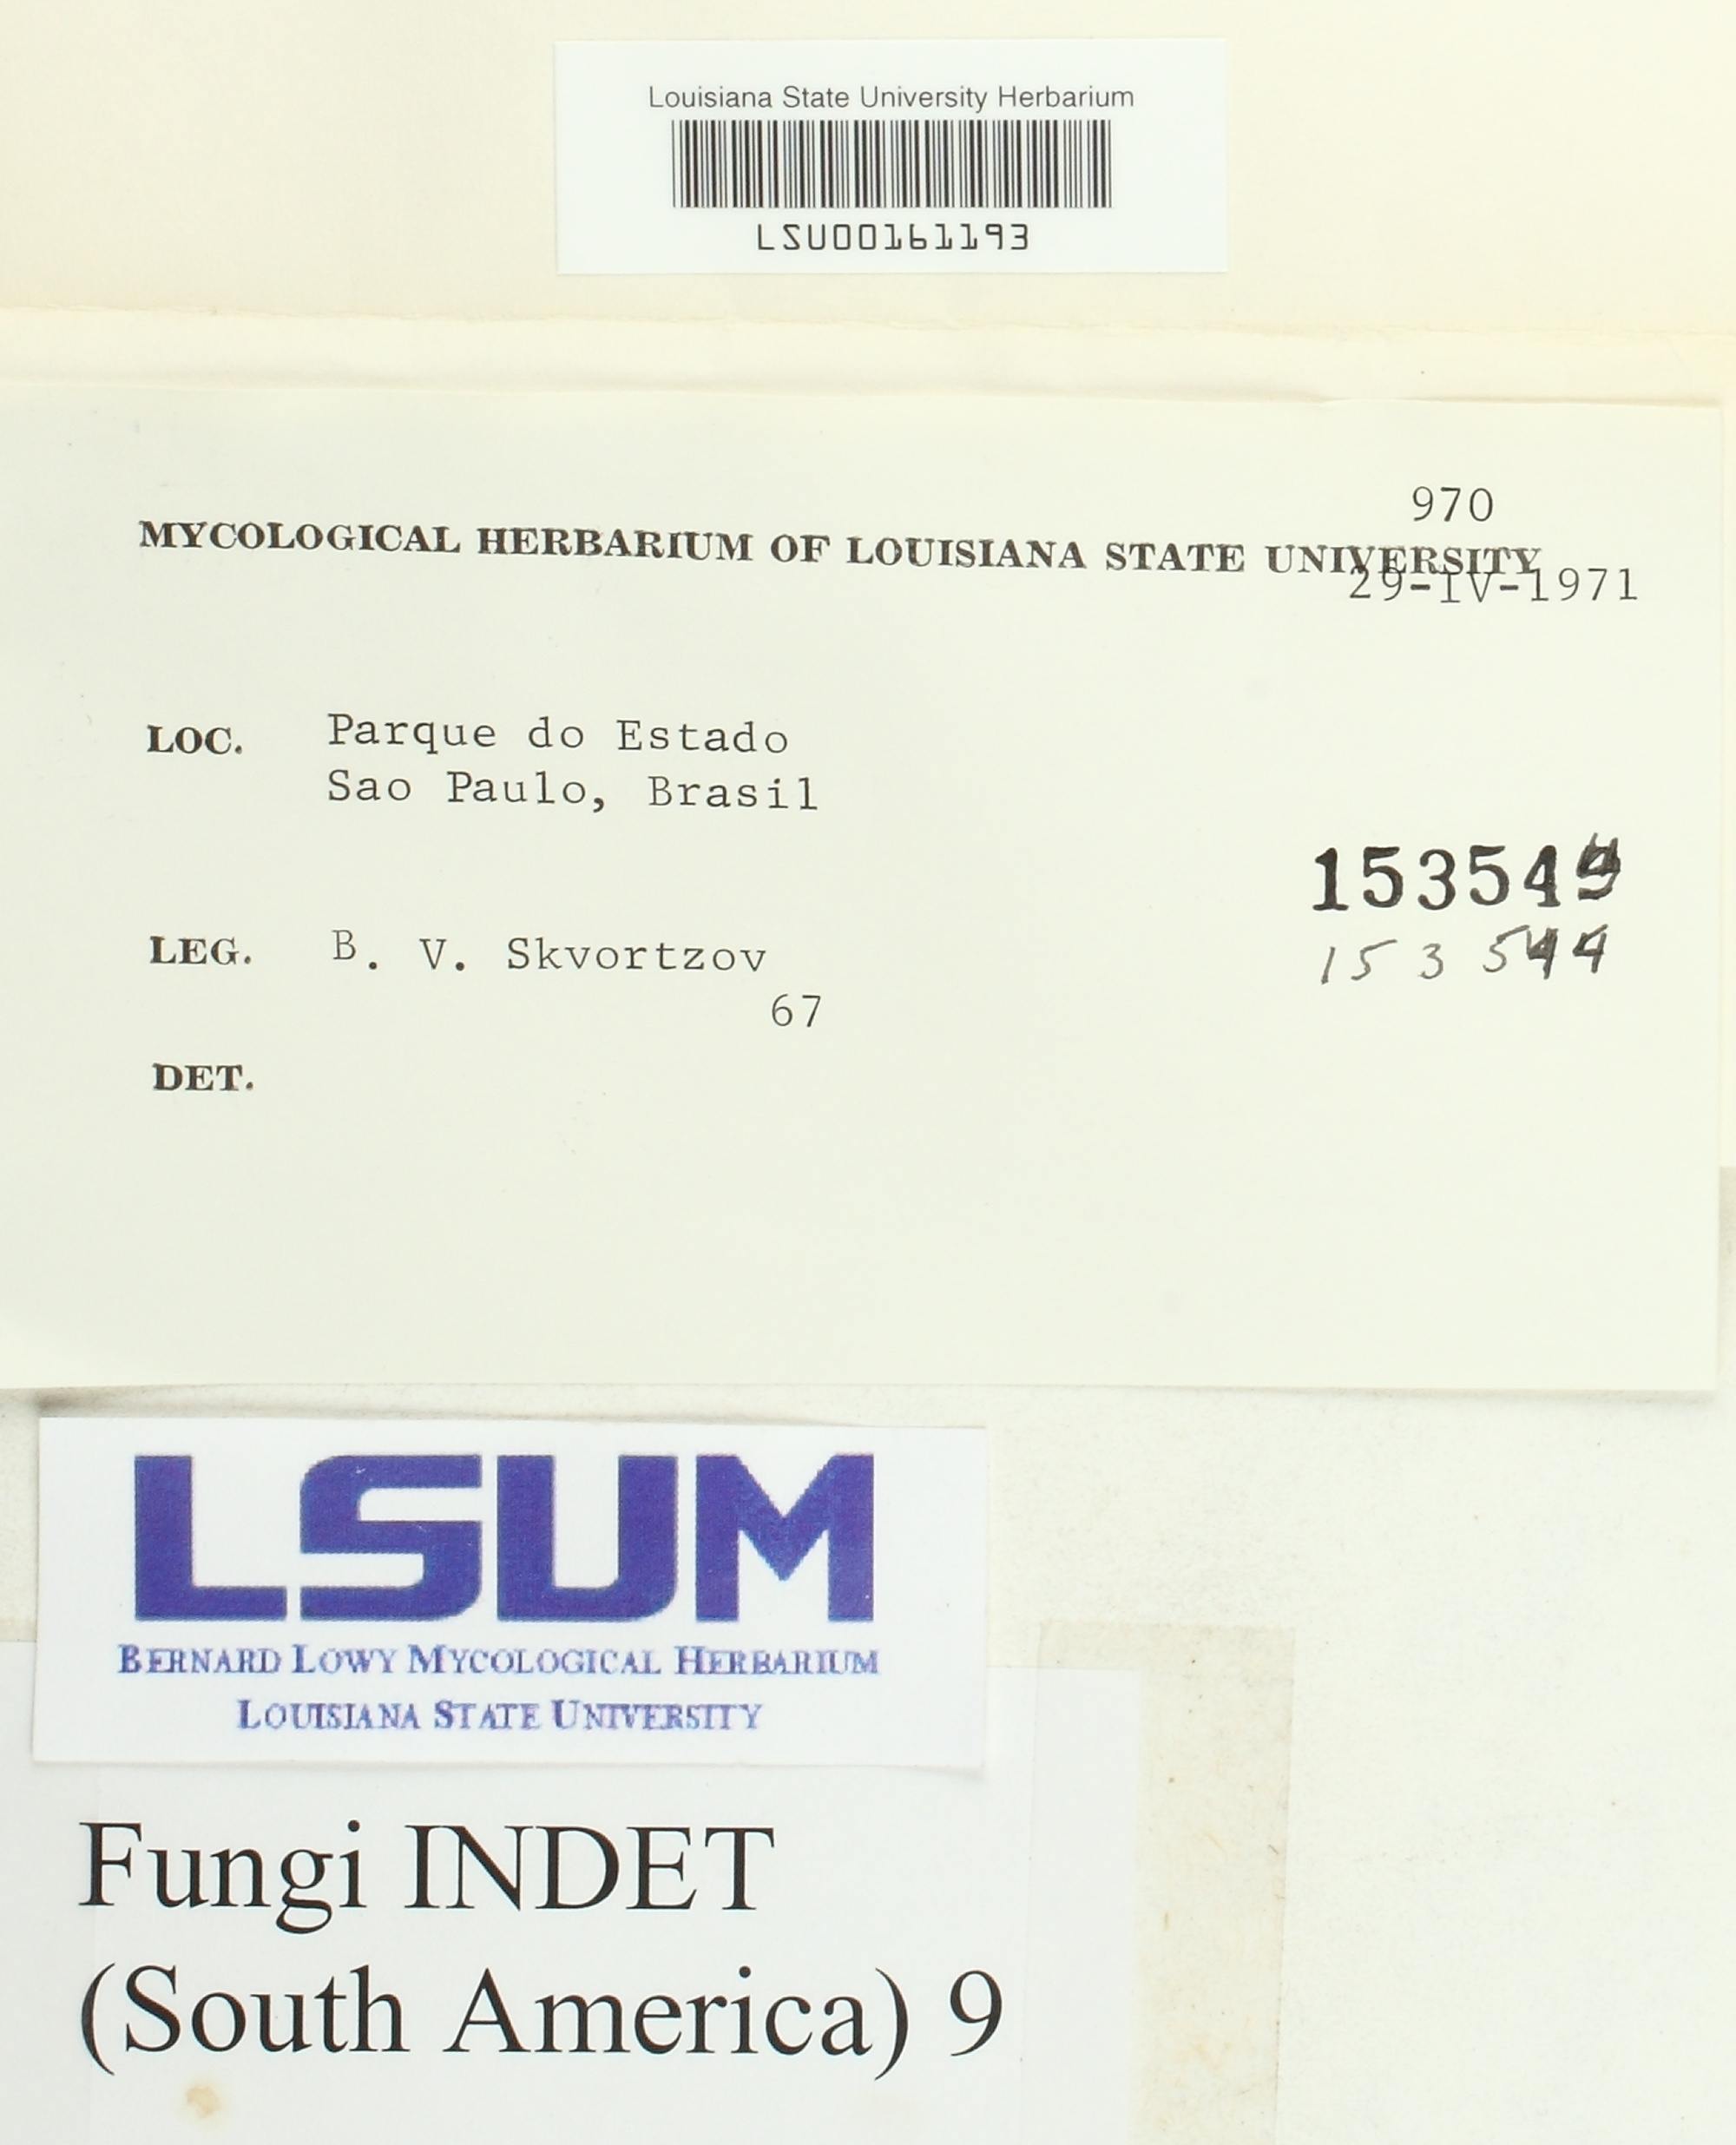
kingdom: Fungi
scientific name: Fungi
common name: Fungi
